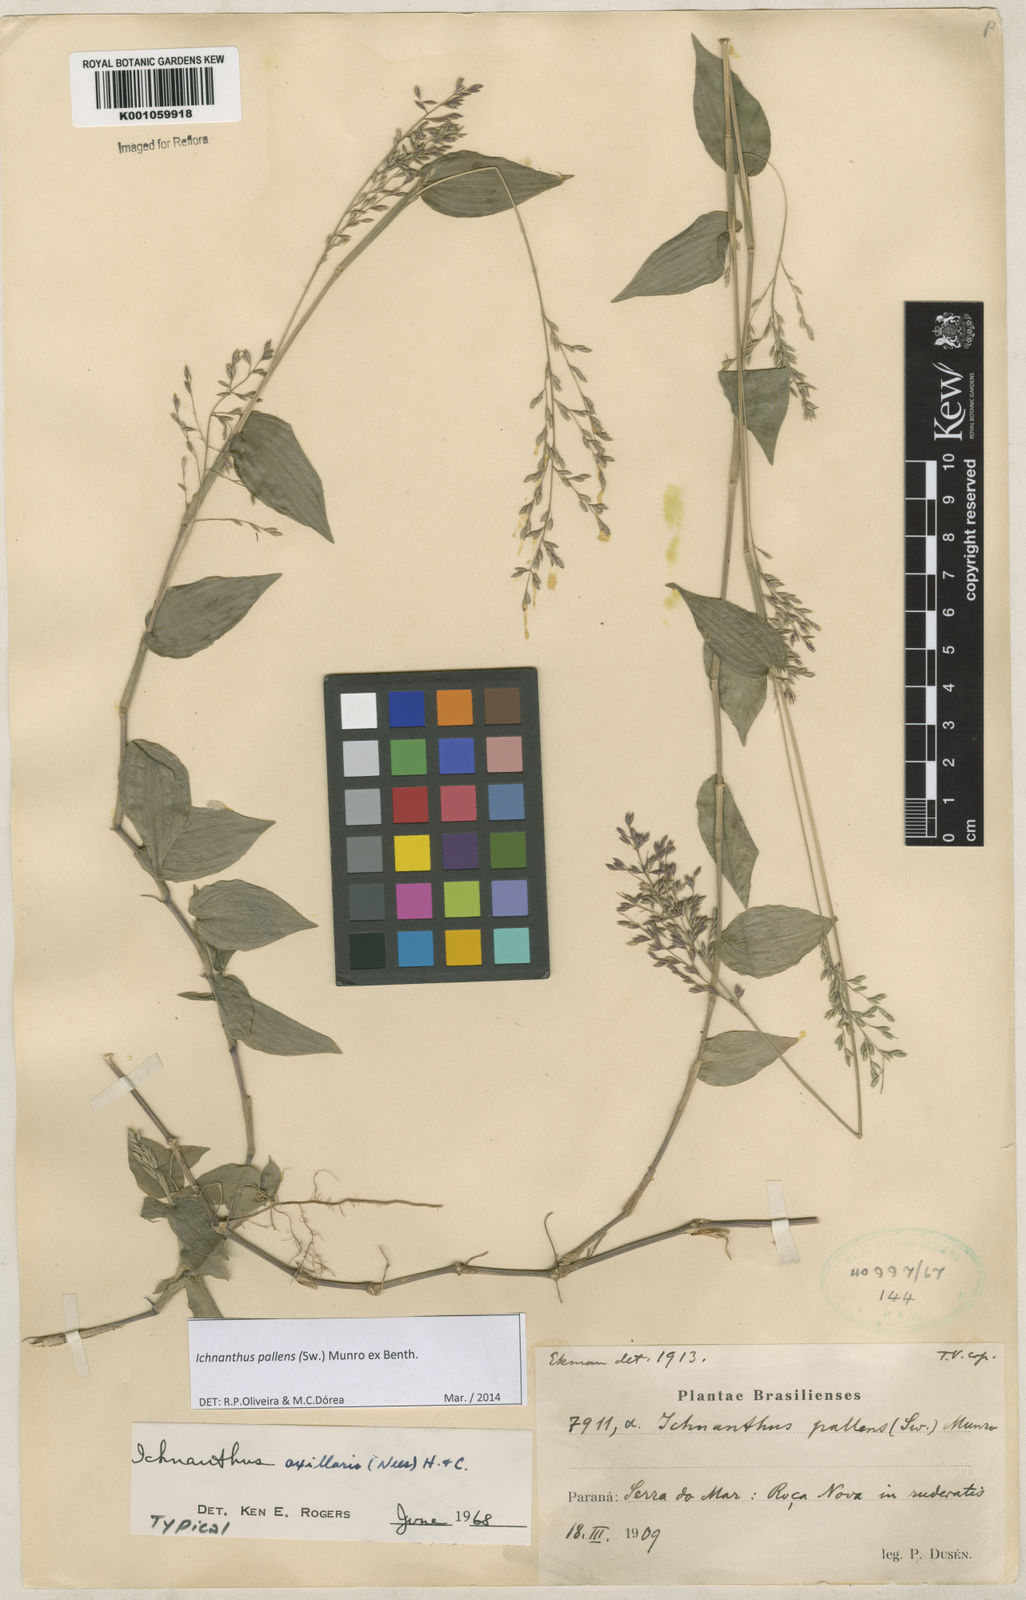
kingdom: Plantae
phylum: Tracheophyta
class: Liliopsida
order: Poales
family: Poaceae
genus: Ichnanthus
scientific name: Ichnanthus pallens
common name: Water grass
